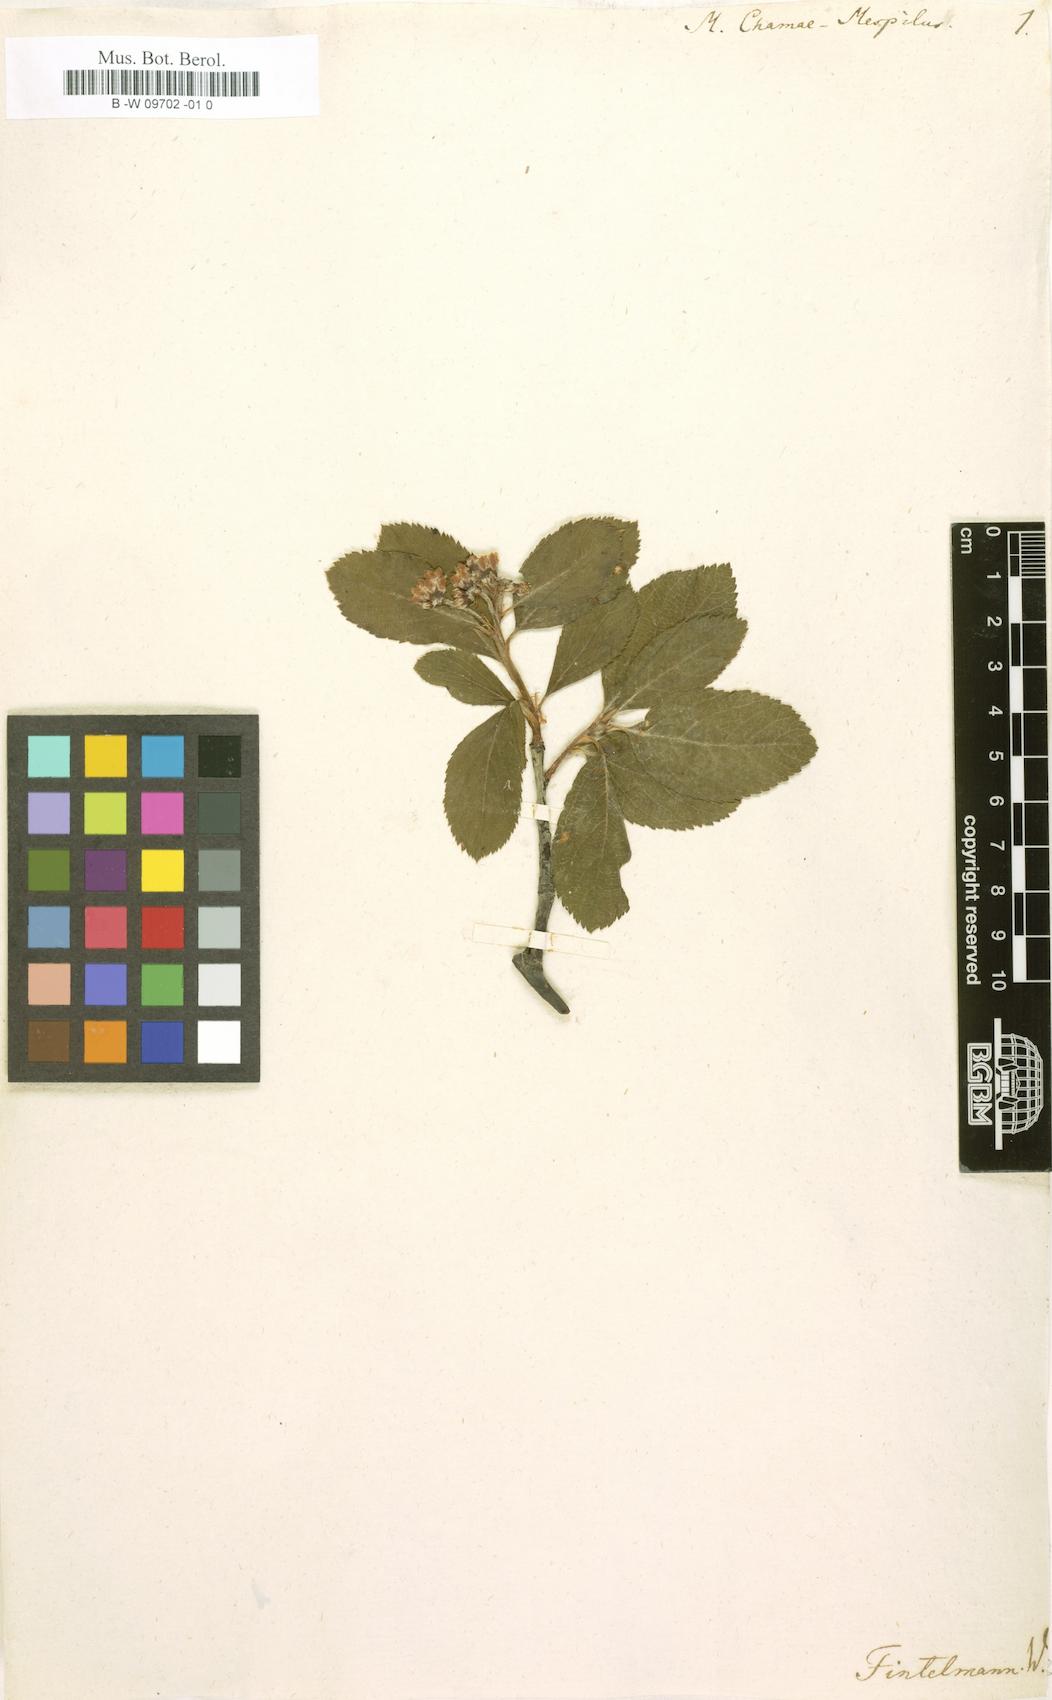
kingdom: Plantae
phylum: Tracheophyta
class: Magnoliopsida
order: Rosales
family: Rosaceae
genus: Chamaemespilus
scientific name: Chamaemespilus alpina
